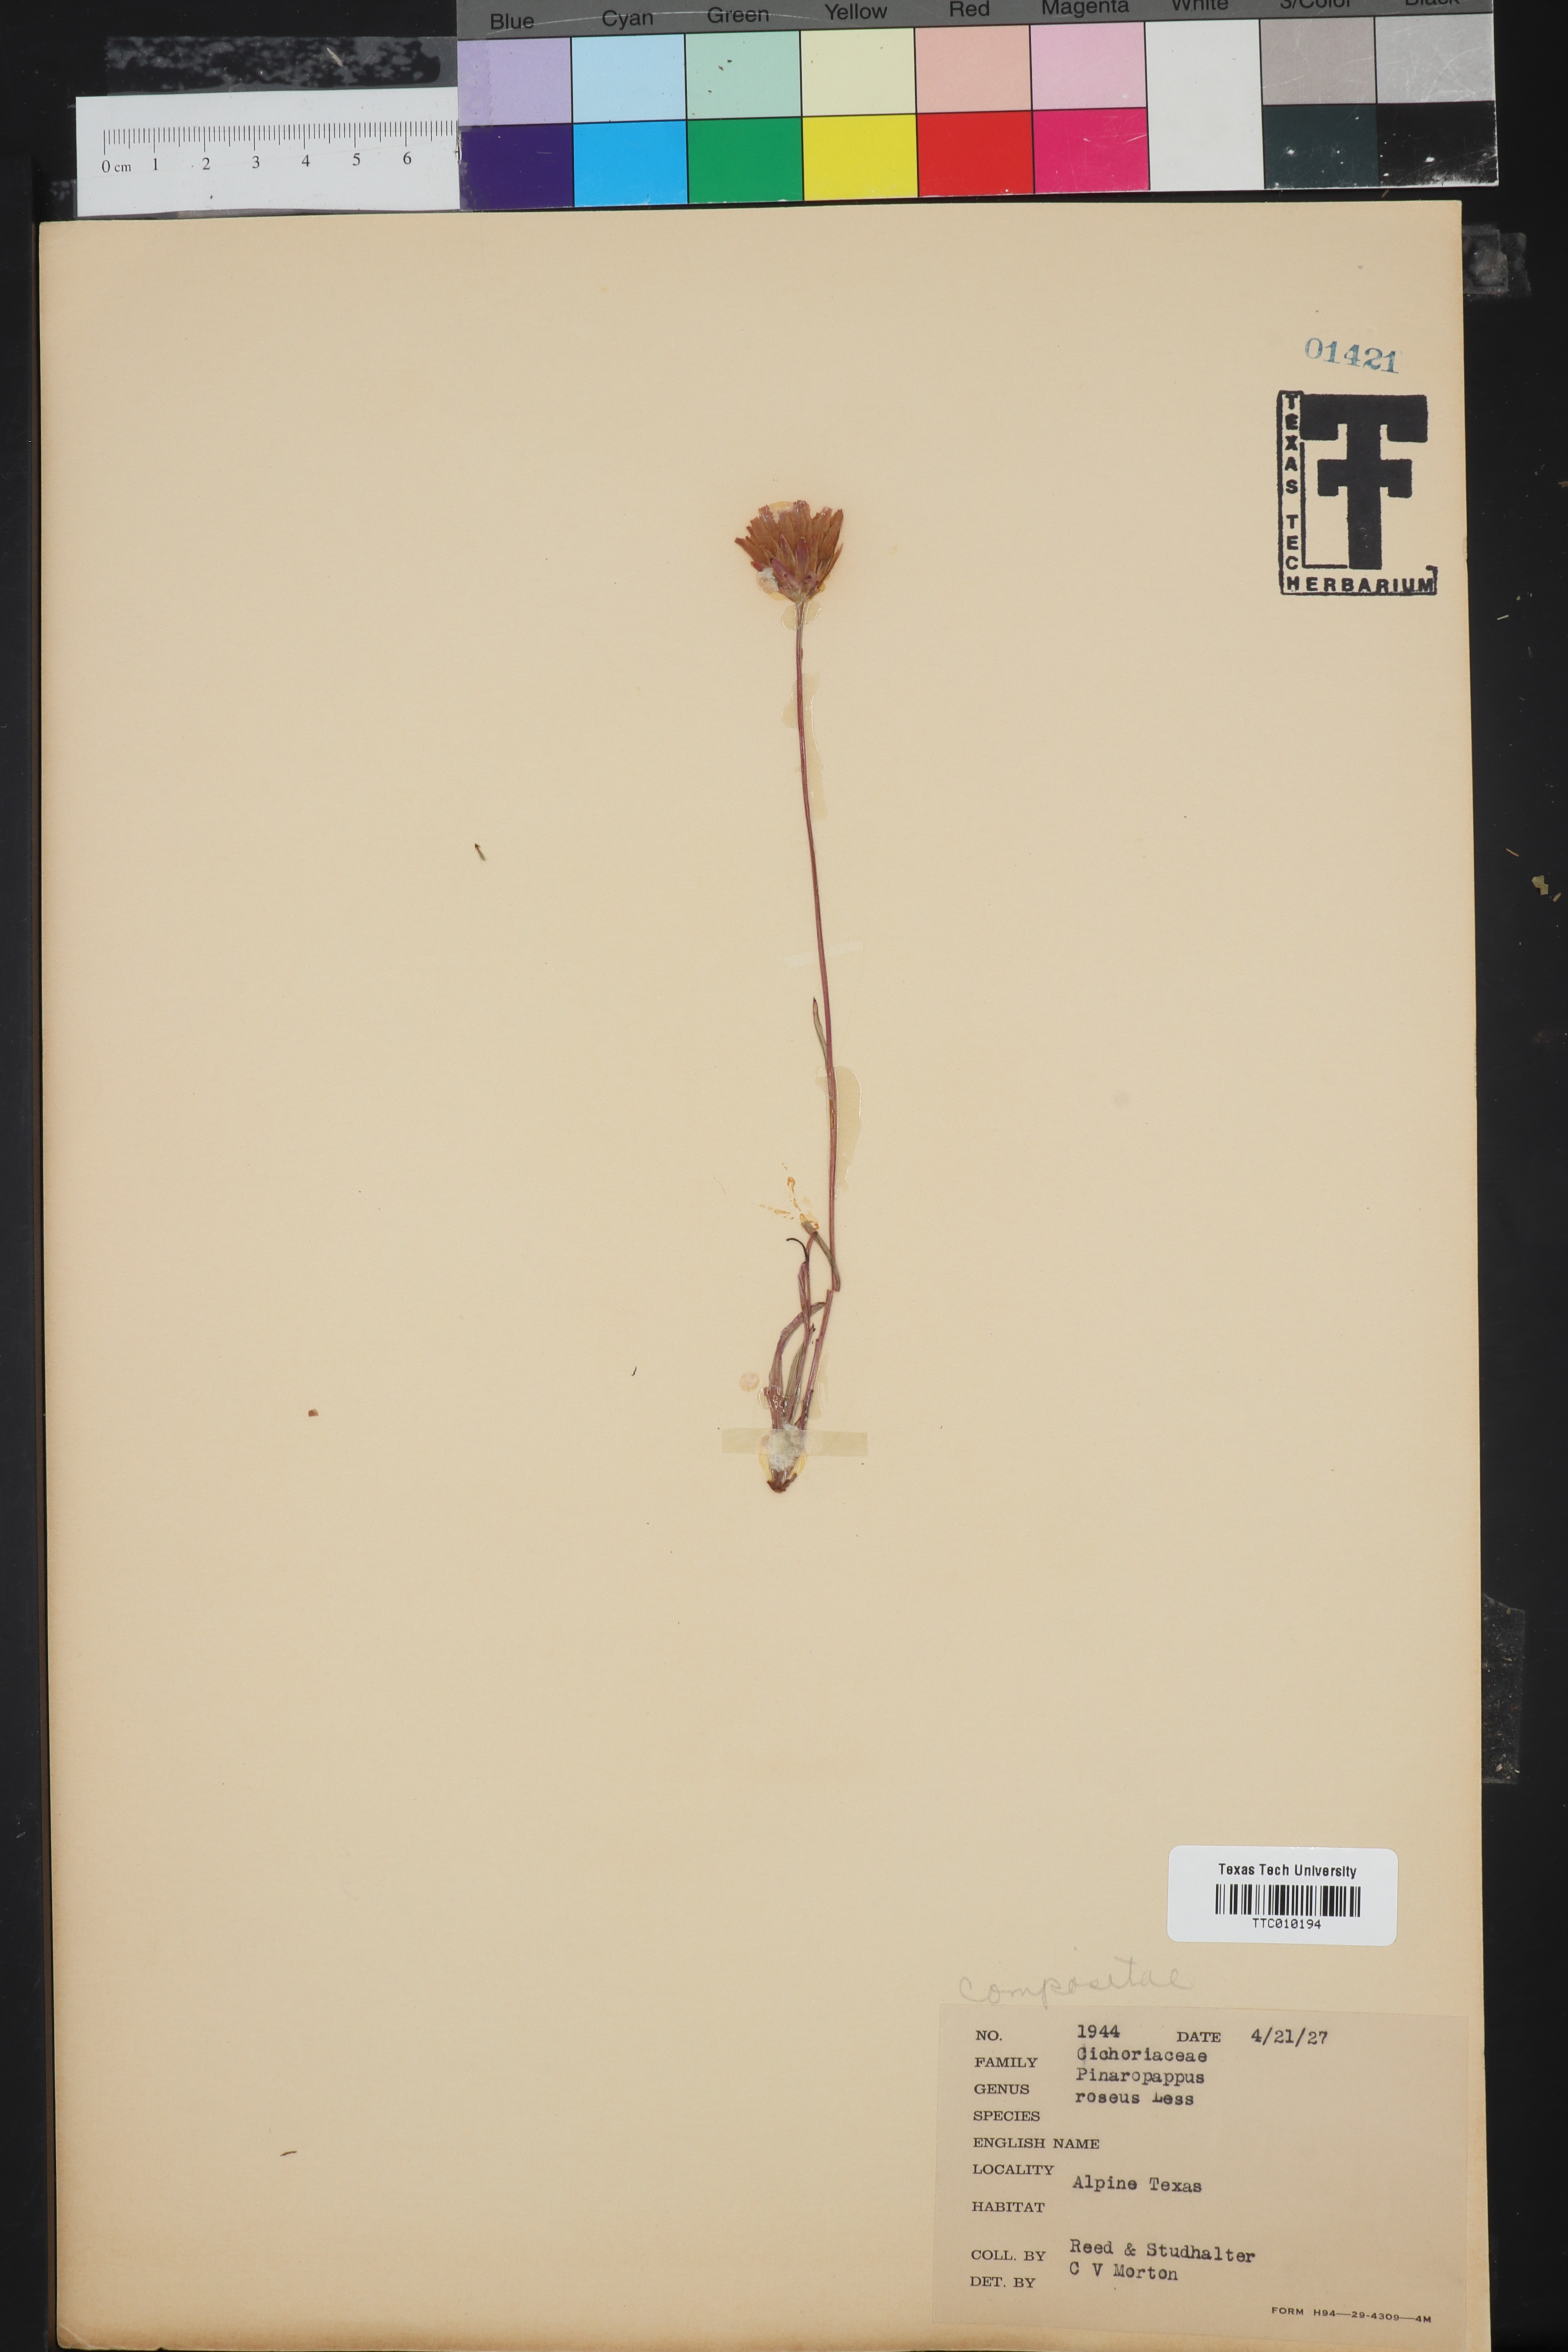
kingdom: Plantae
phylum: Tracheophyta
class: Magnoliopsida
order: Asterales
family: Asteraceae
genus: Pinaropappus
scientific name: Pinaropappus roseus
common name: Rock-lettuce
